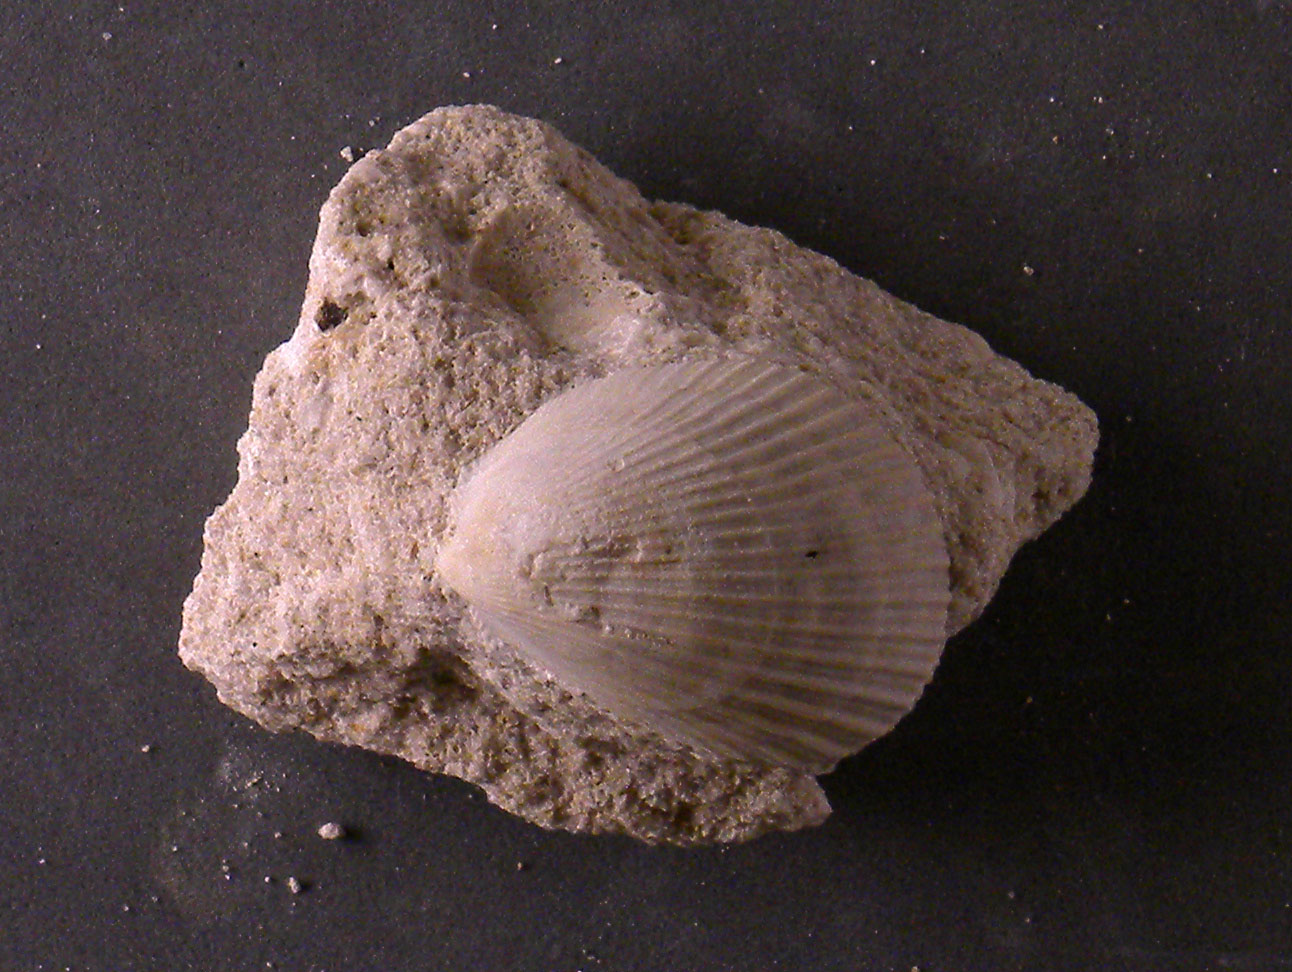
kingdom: Animalia
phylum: Mollusca
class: Bivalvia
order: Limida
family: Limidae
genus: Pseudolimea
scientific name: Pseudolimea
